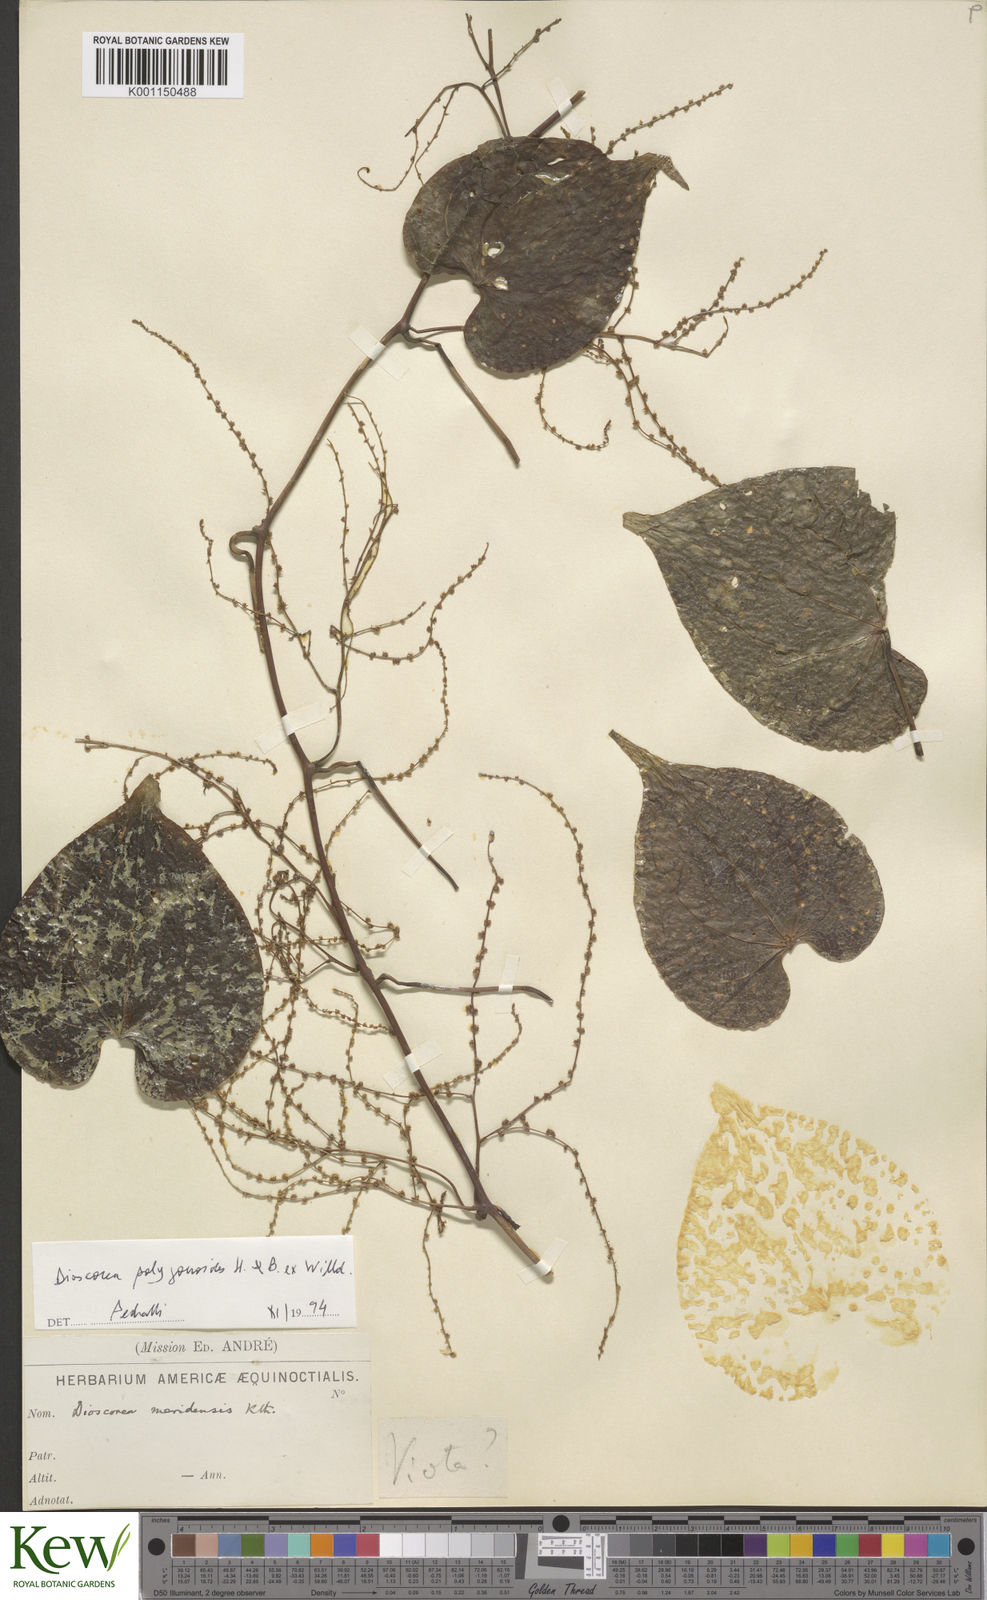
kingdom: Plantae
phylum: Tracheophyta
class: Liliopsida
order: Dioscoreales
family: Dioscoreaceae
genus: Dioscorea
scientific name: Dioscorea meridensis
